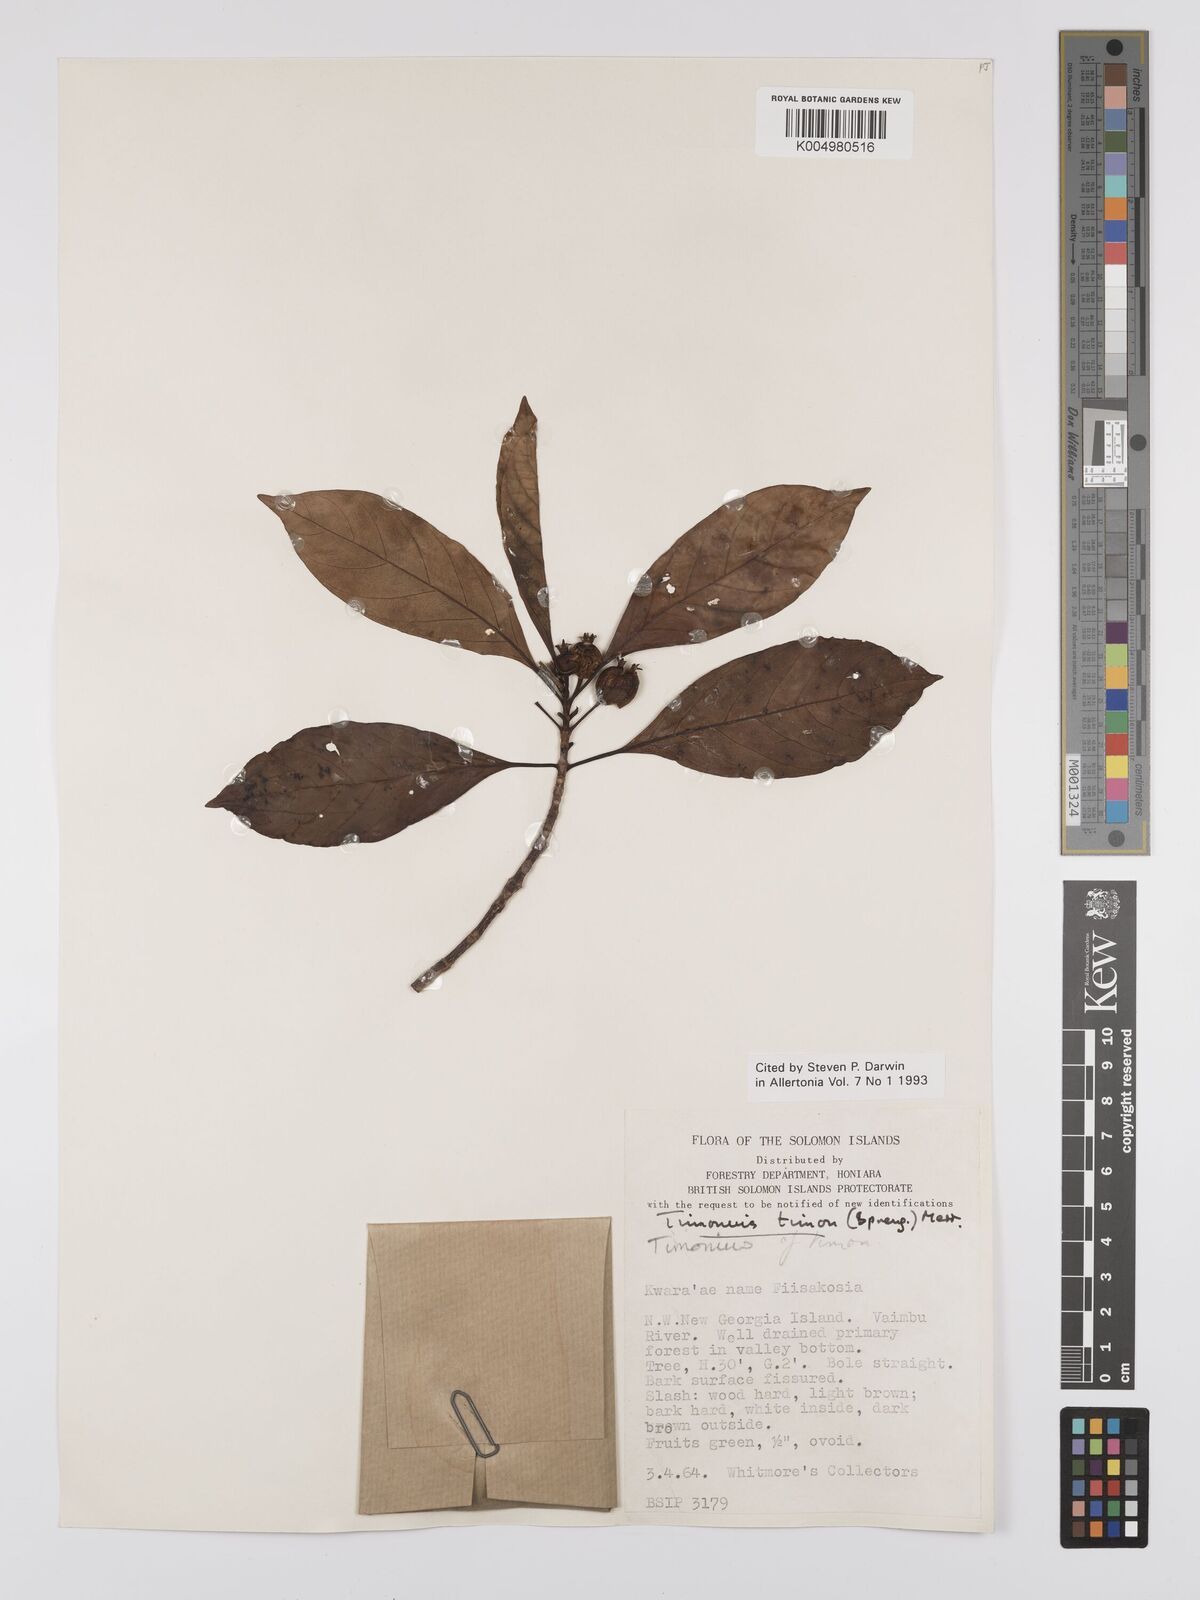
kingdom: Plantae
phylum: Tracheophyta
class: Magnoliopsida
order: Gentianales
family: Rubiaceae
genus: Timonius
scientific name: Timonius timon
